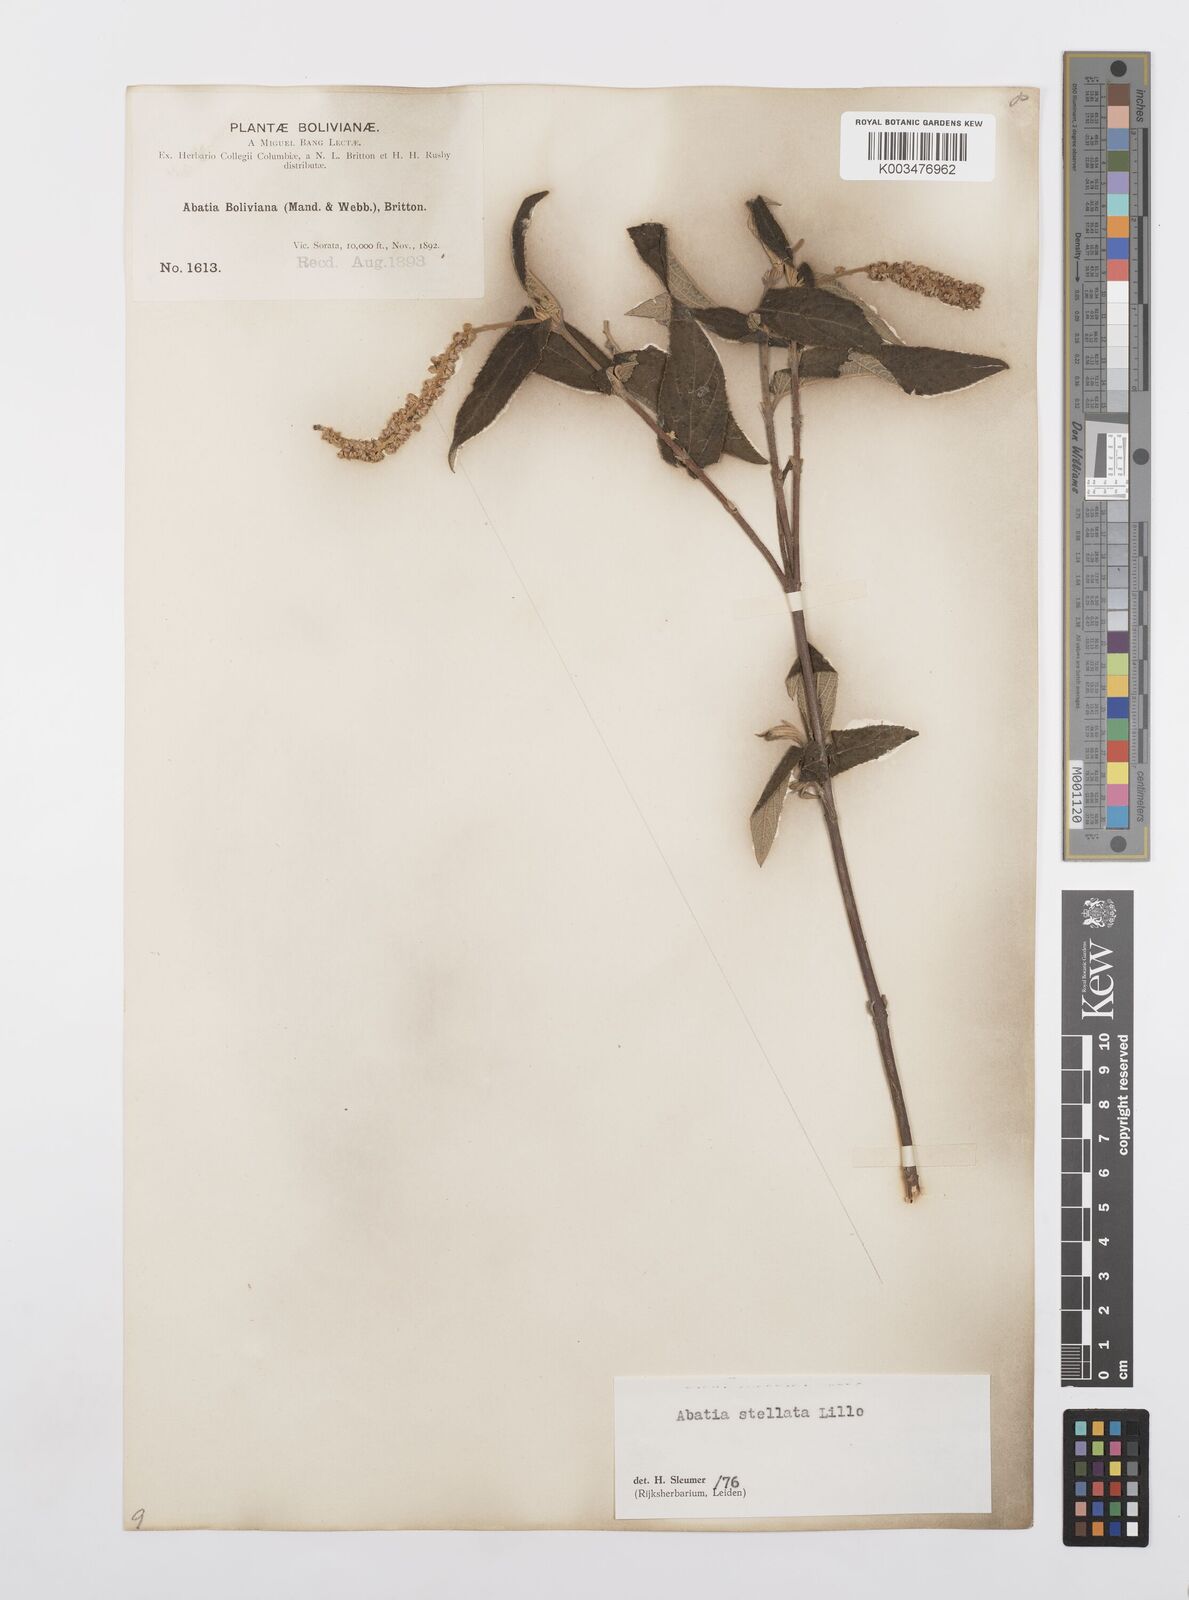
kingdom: Plantae
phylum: Tracheophyta
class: Magnoliopsida
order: Malpighiales
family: Salicaceae
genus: Abatia
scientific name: Abatia stellata
